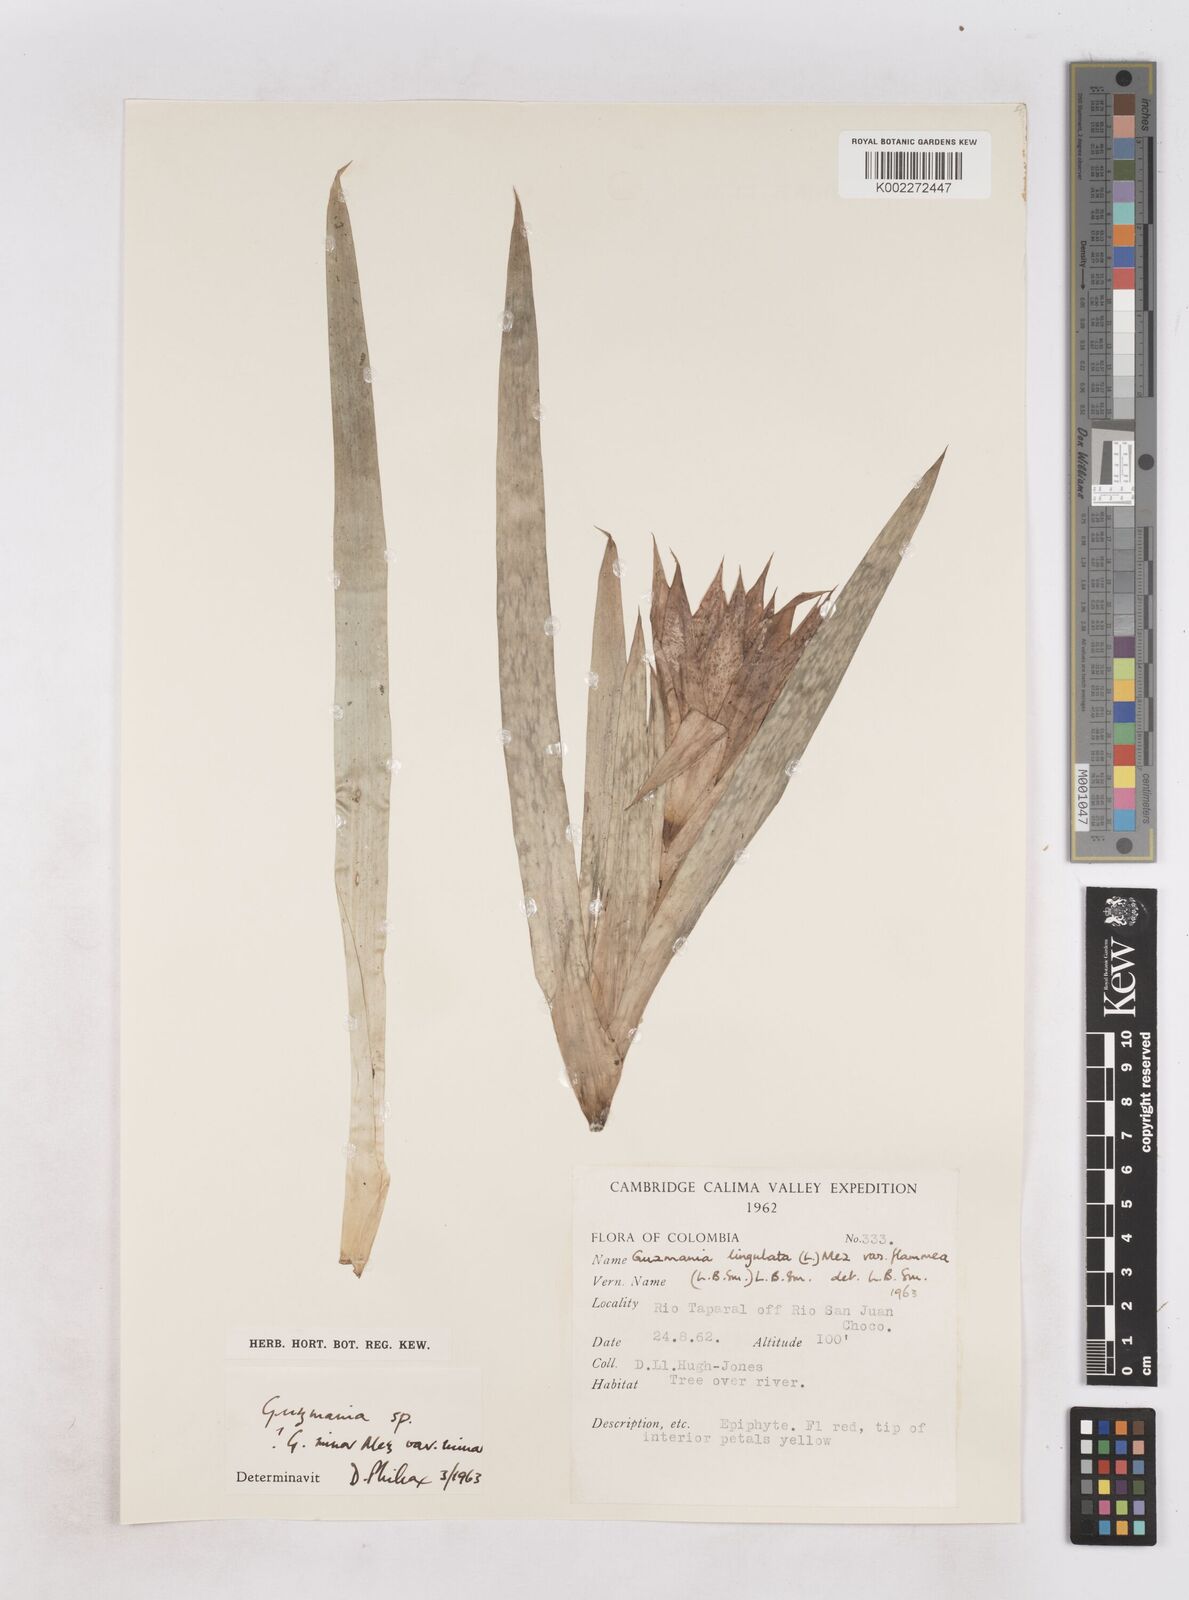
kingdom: Plantae
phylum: Tracheophyta
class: Liliopsida
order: Poales
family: Bromeliaceae
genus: Guzmania
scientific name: Guzmania lingulata
